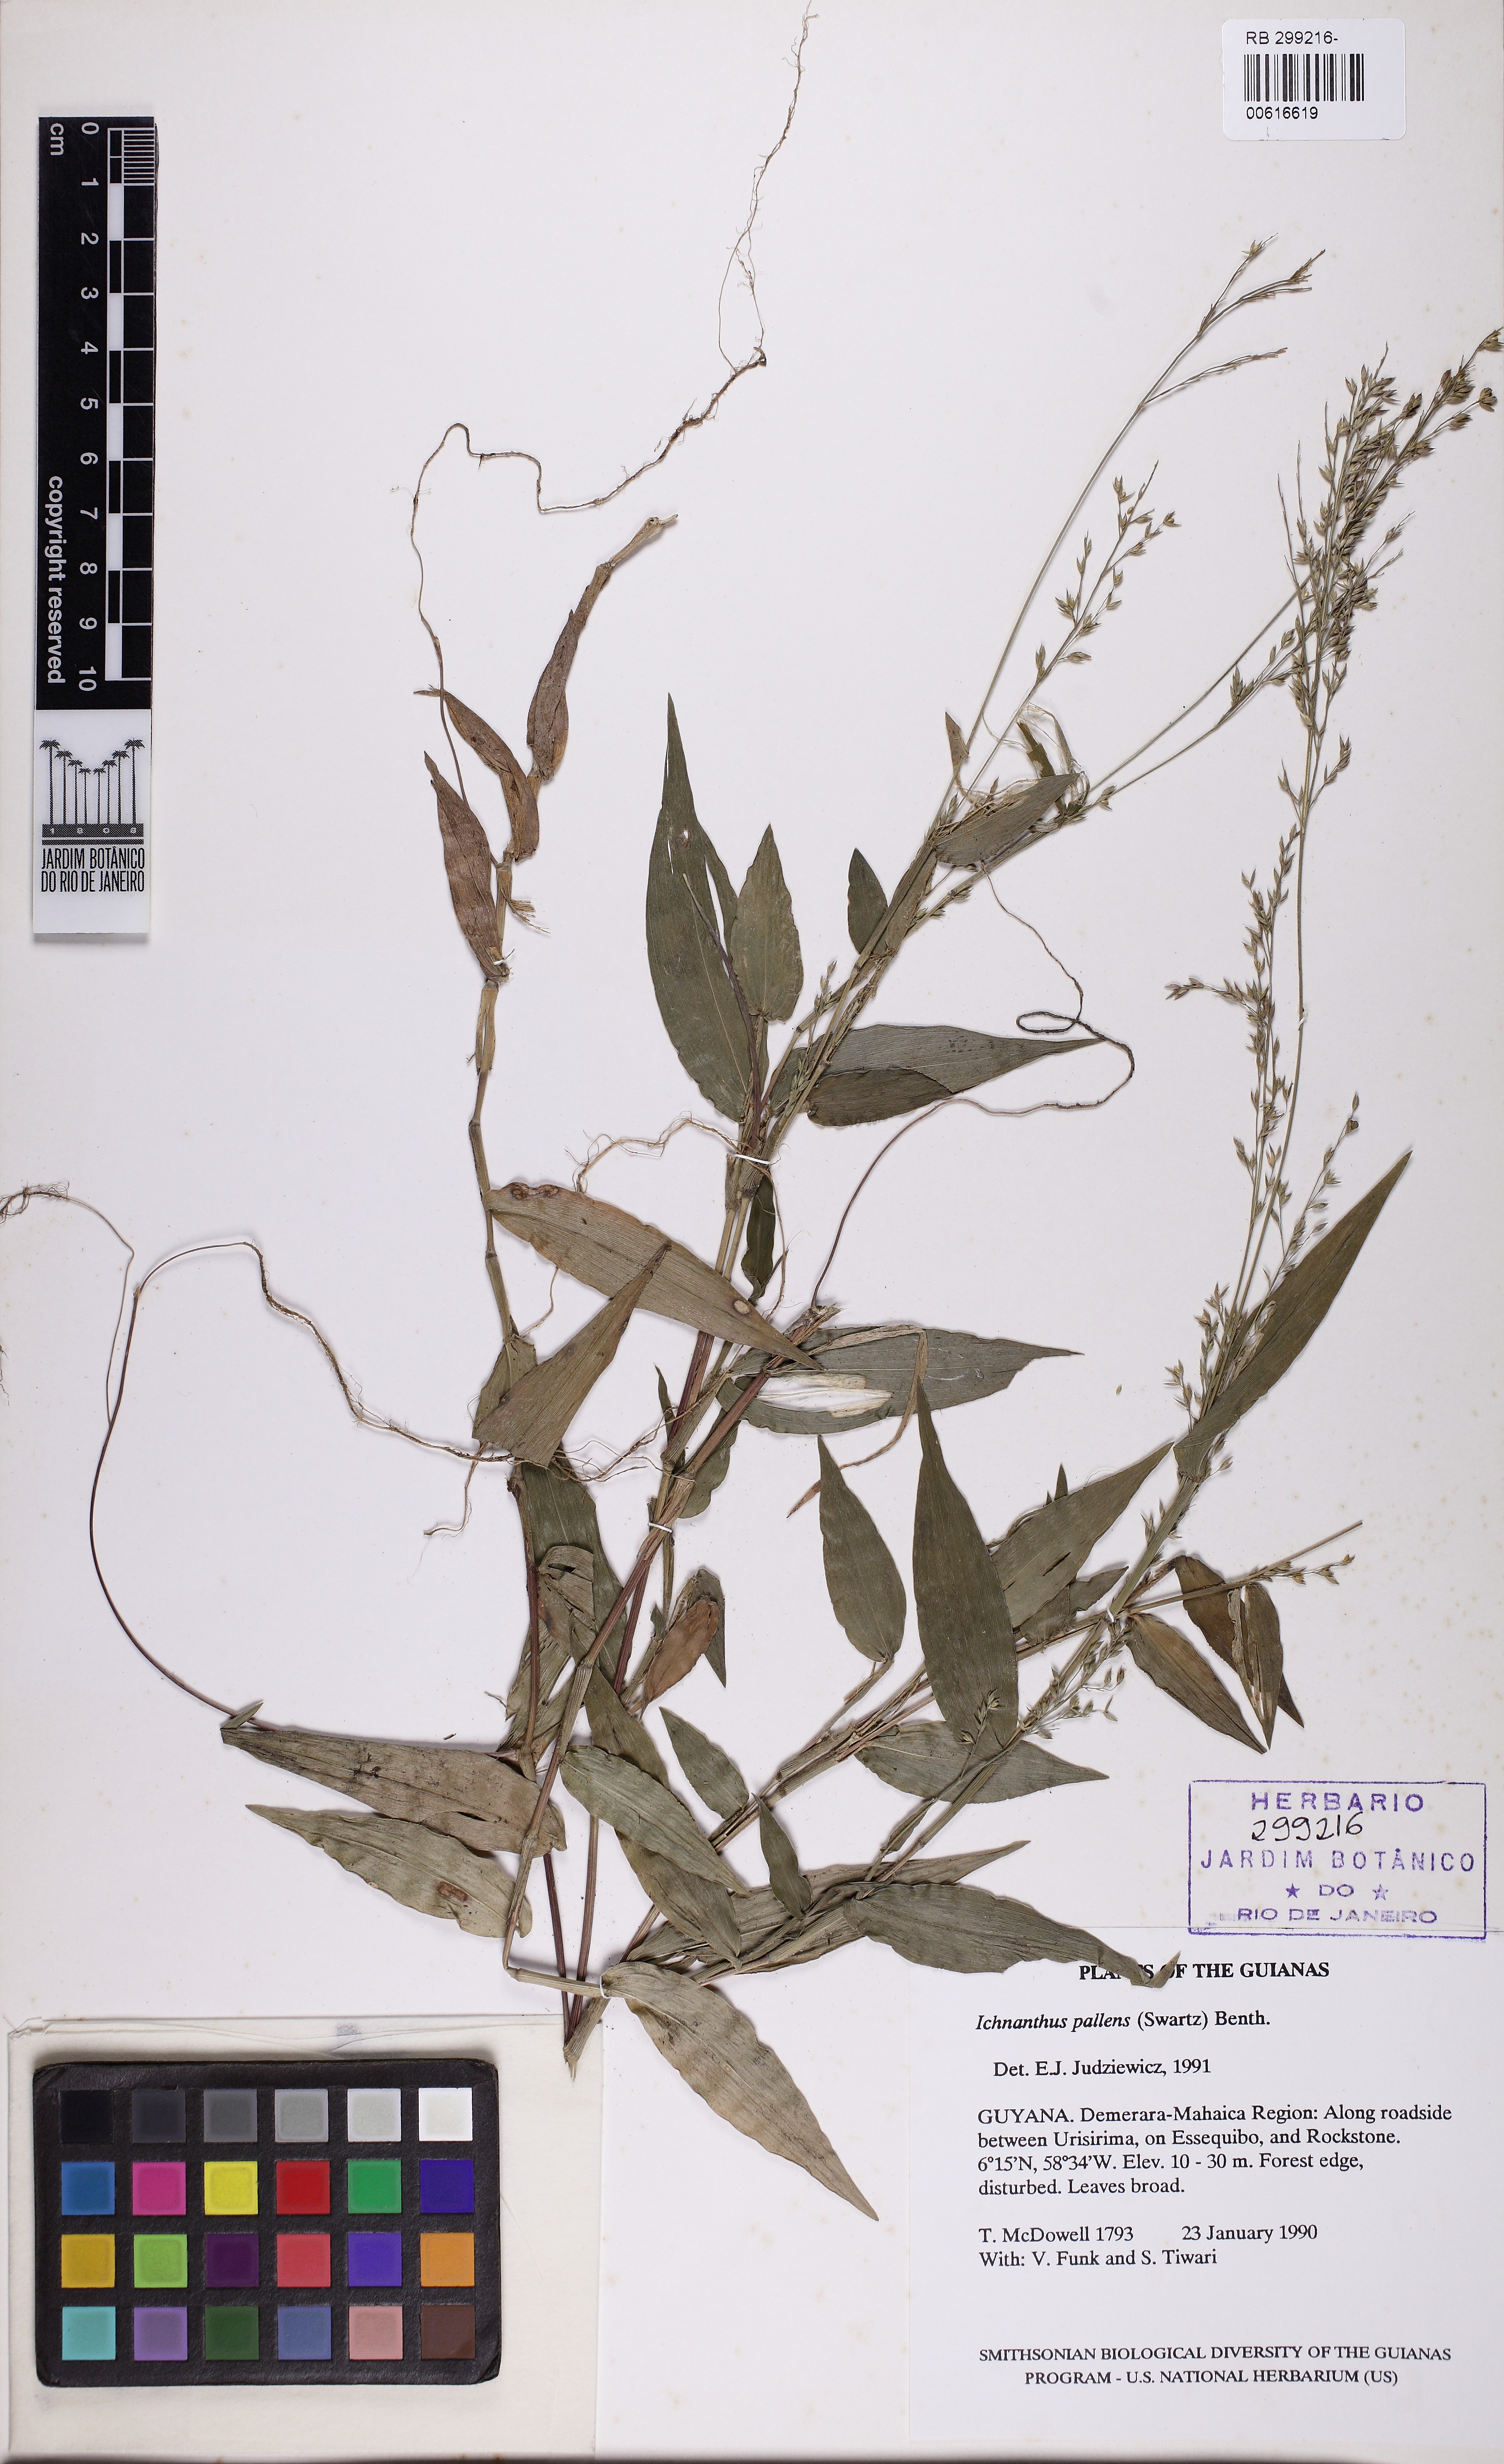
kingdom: Plantae
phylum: Tracheophyta
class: Liliopsida
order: Poales
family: Poaceae
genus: Ichnanthus
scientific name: Ichnanthus pallens
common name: Water grass
